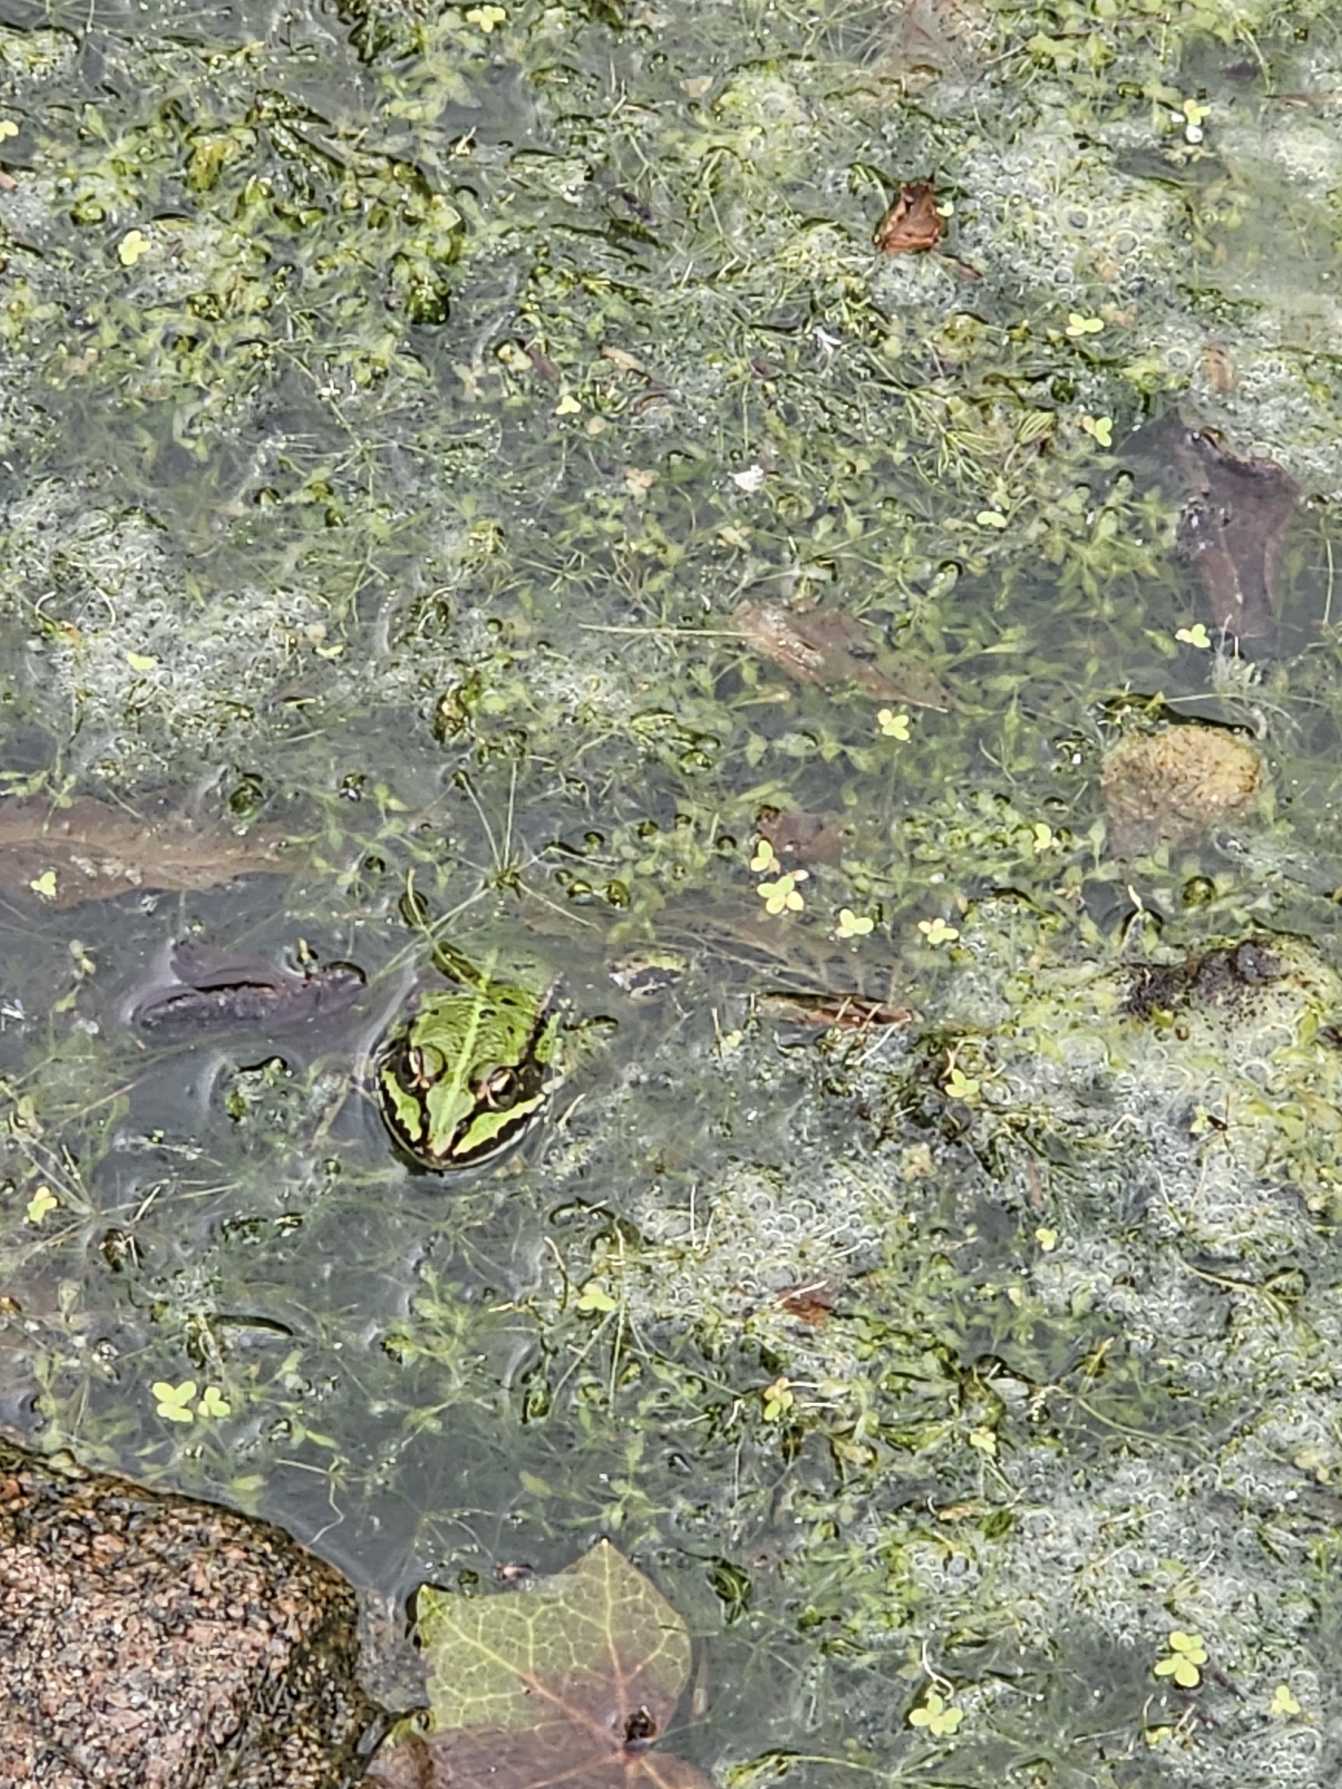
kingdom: Animalia
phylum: Chordata
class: Amphibia
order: Anura
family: Ranidae
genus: Pelophylax
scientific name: Pelophylax lessonae
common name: Grøn frø
